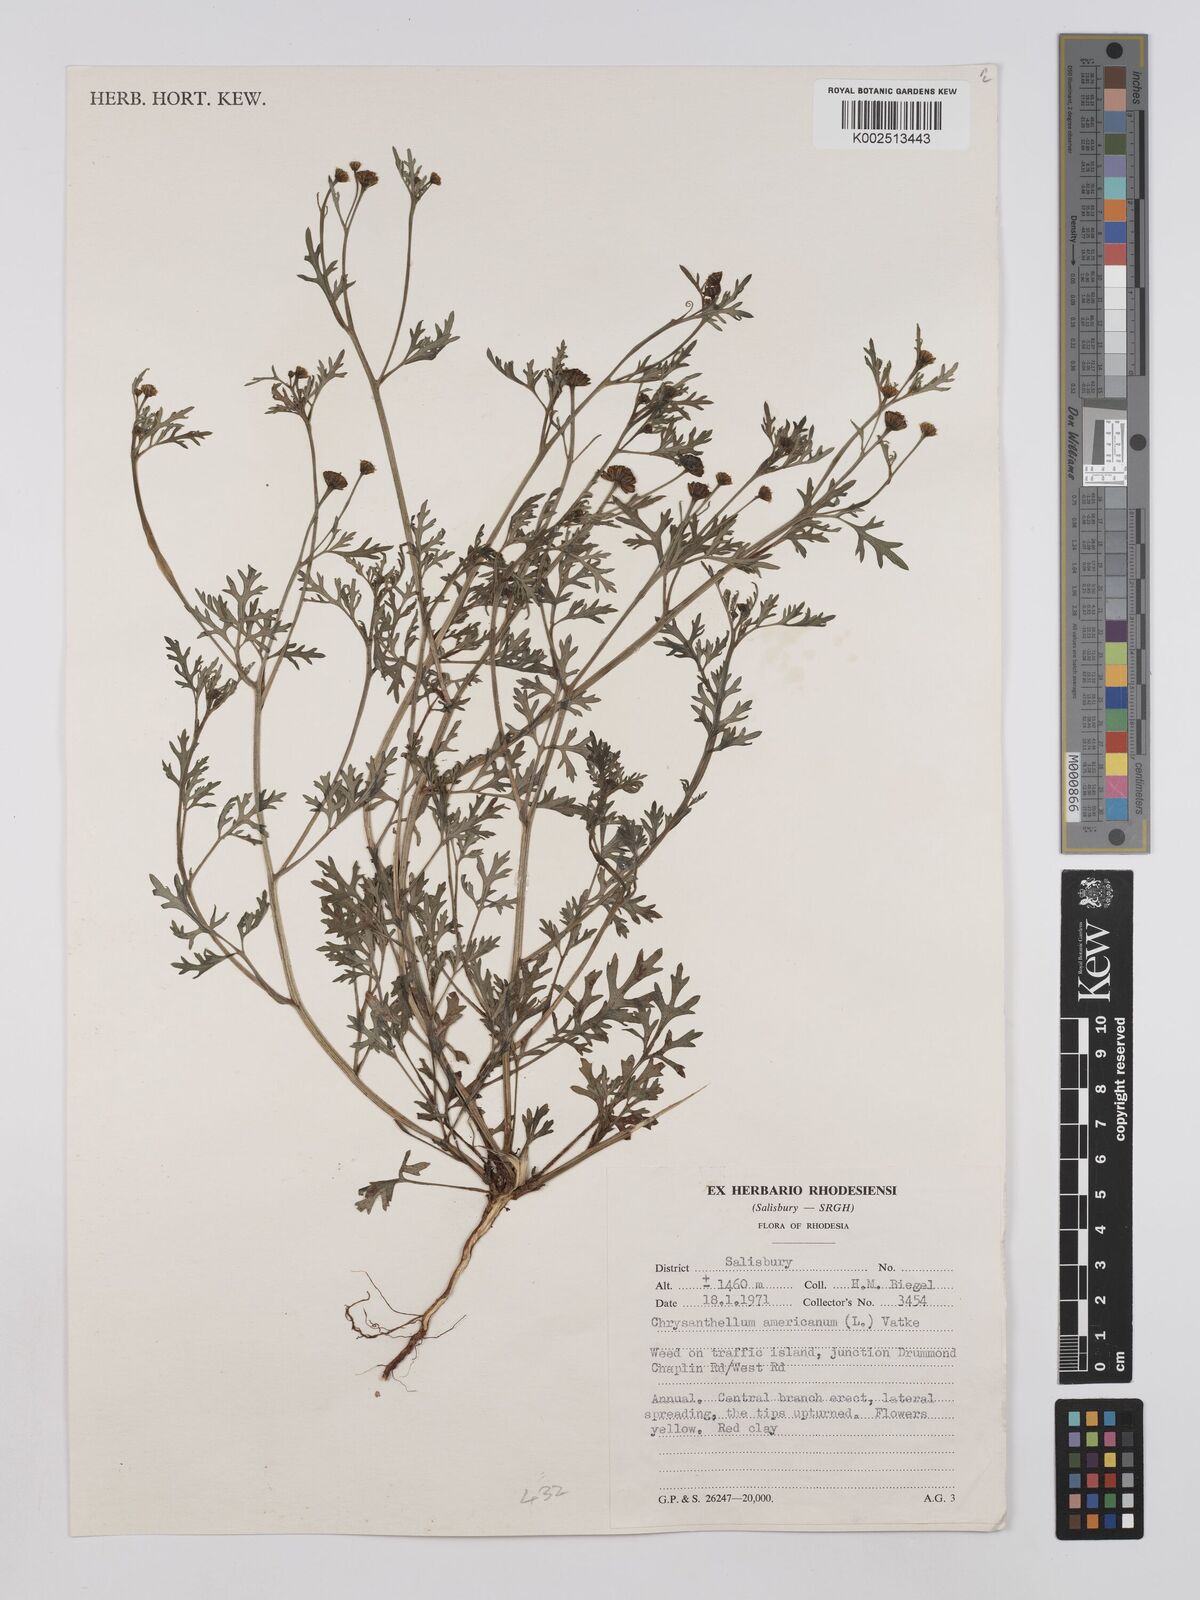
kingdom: Plantae
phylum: Tracheophyta
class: Magnoliopsida
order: Asterales
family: Asteraceae
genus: Chrysanthellum
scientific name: Chrysanthellum indicum
